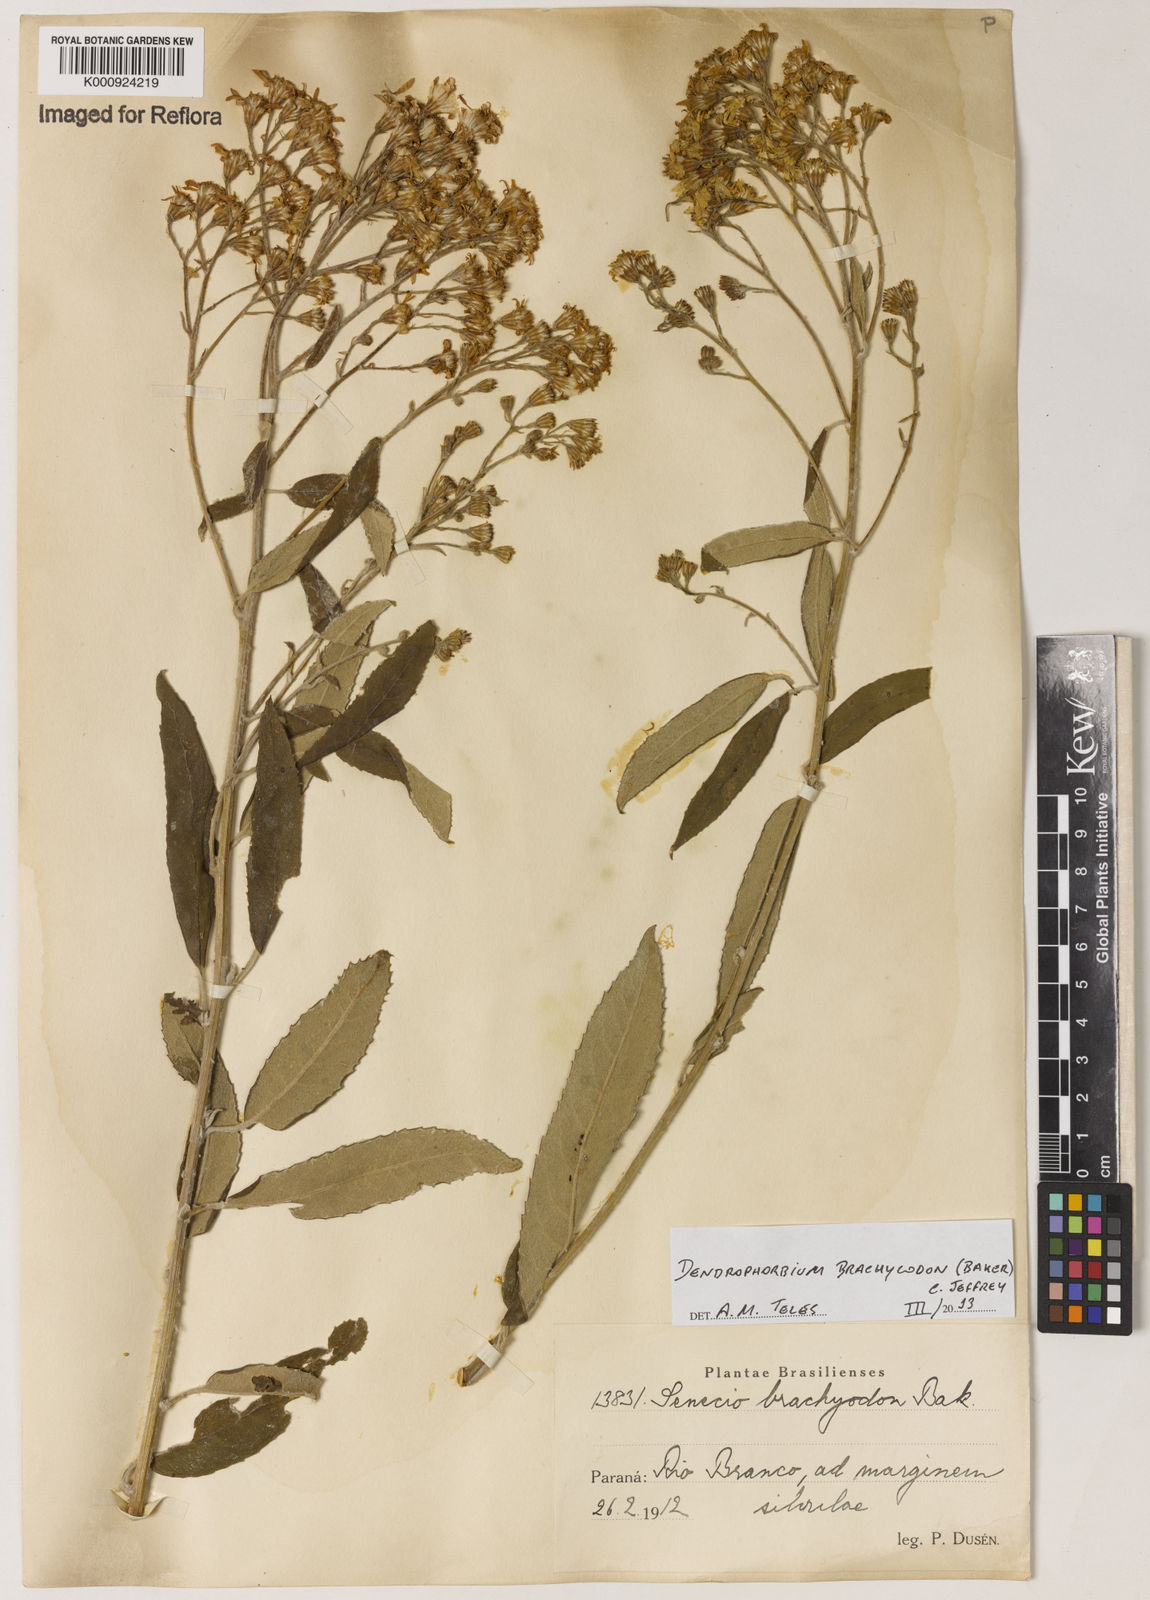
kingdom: Plantae
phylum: Tracheophyta
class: Magnoliopsida
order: Asterales
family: Asteraceae
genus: Dendrophorbium
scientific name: Dendrophorbium brachycodon
